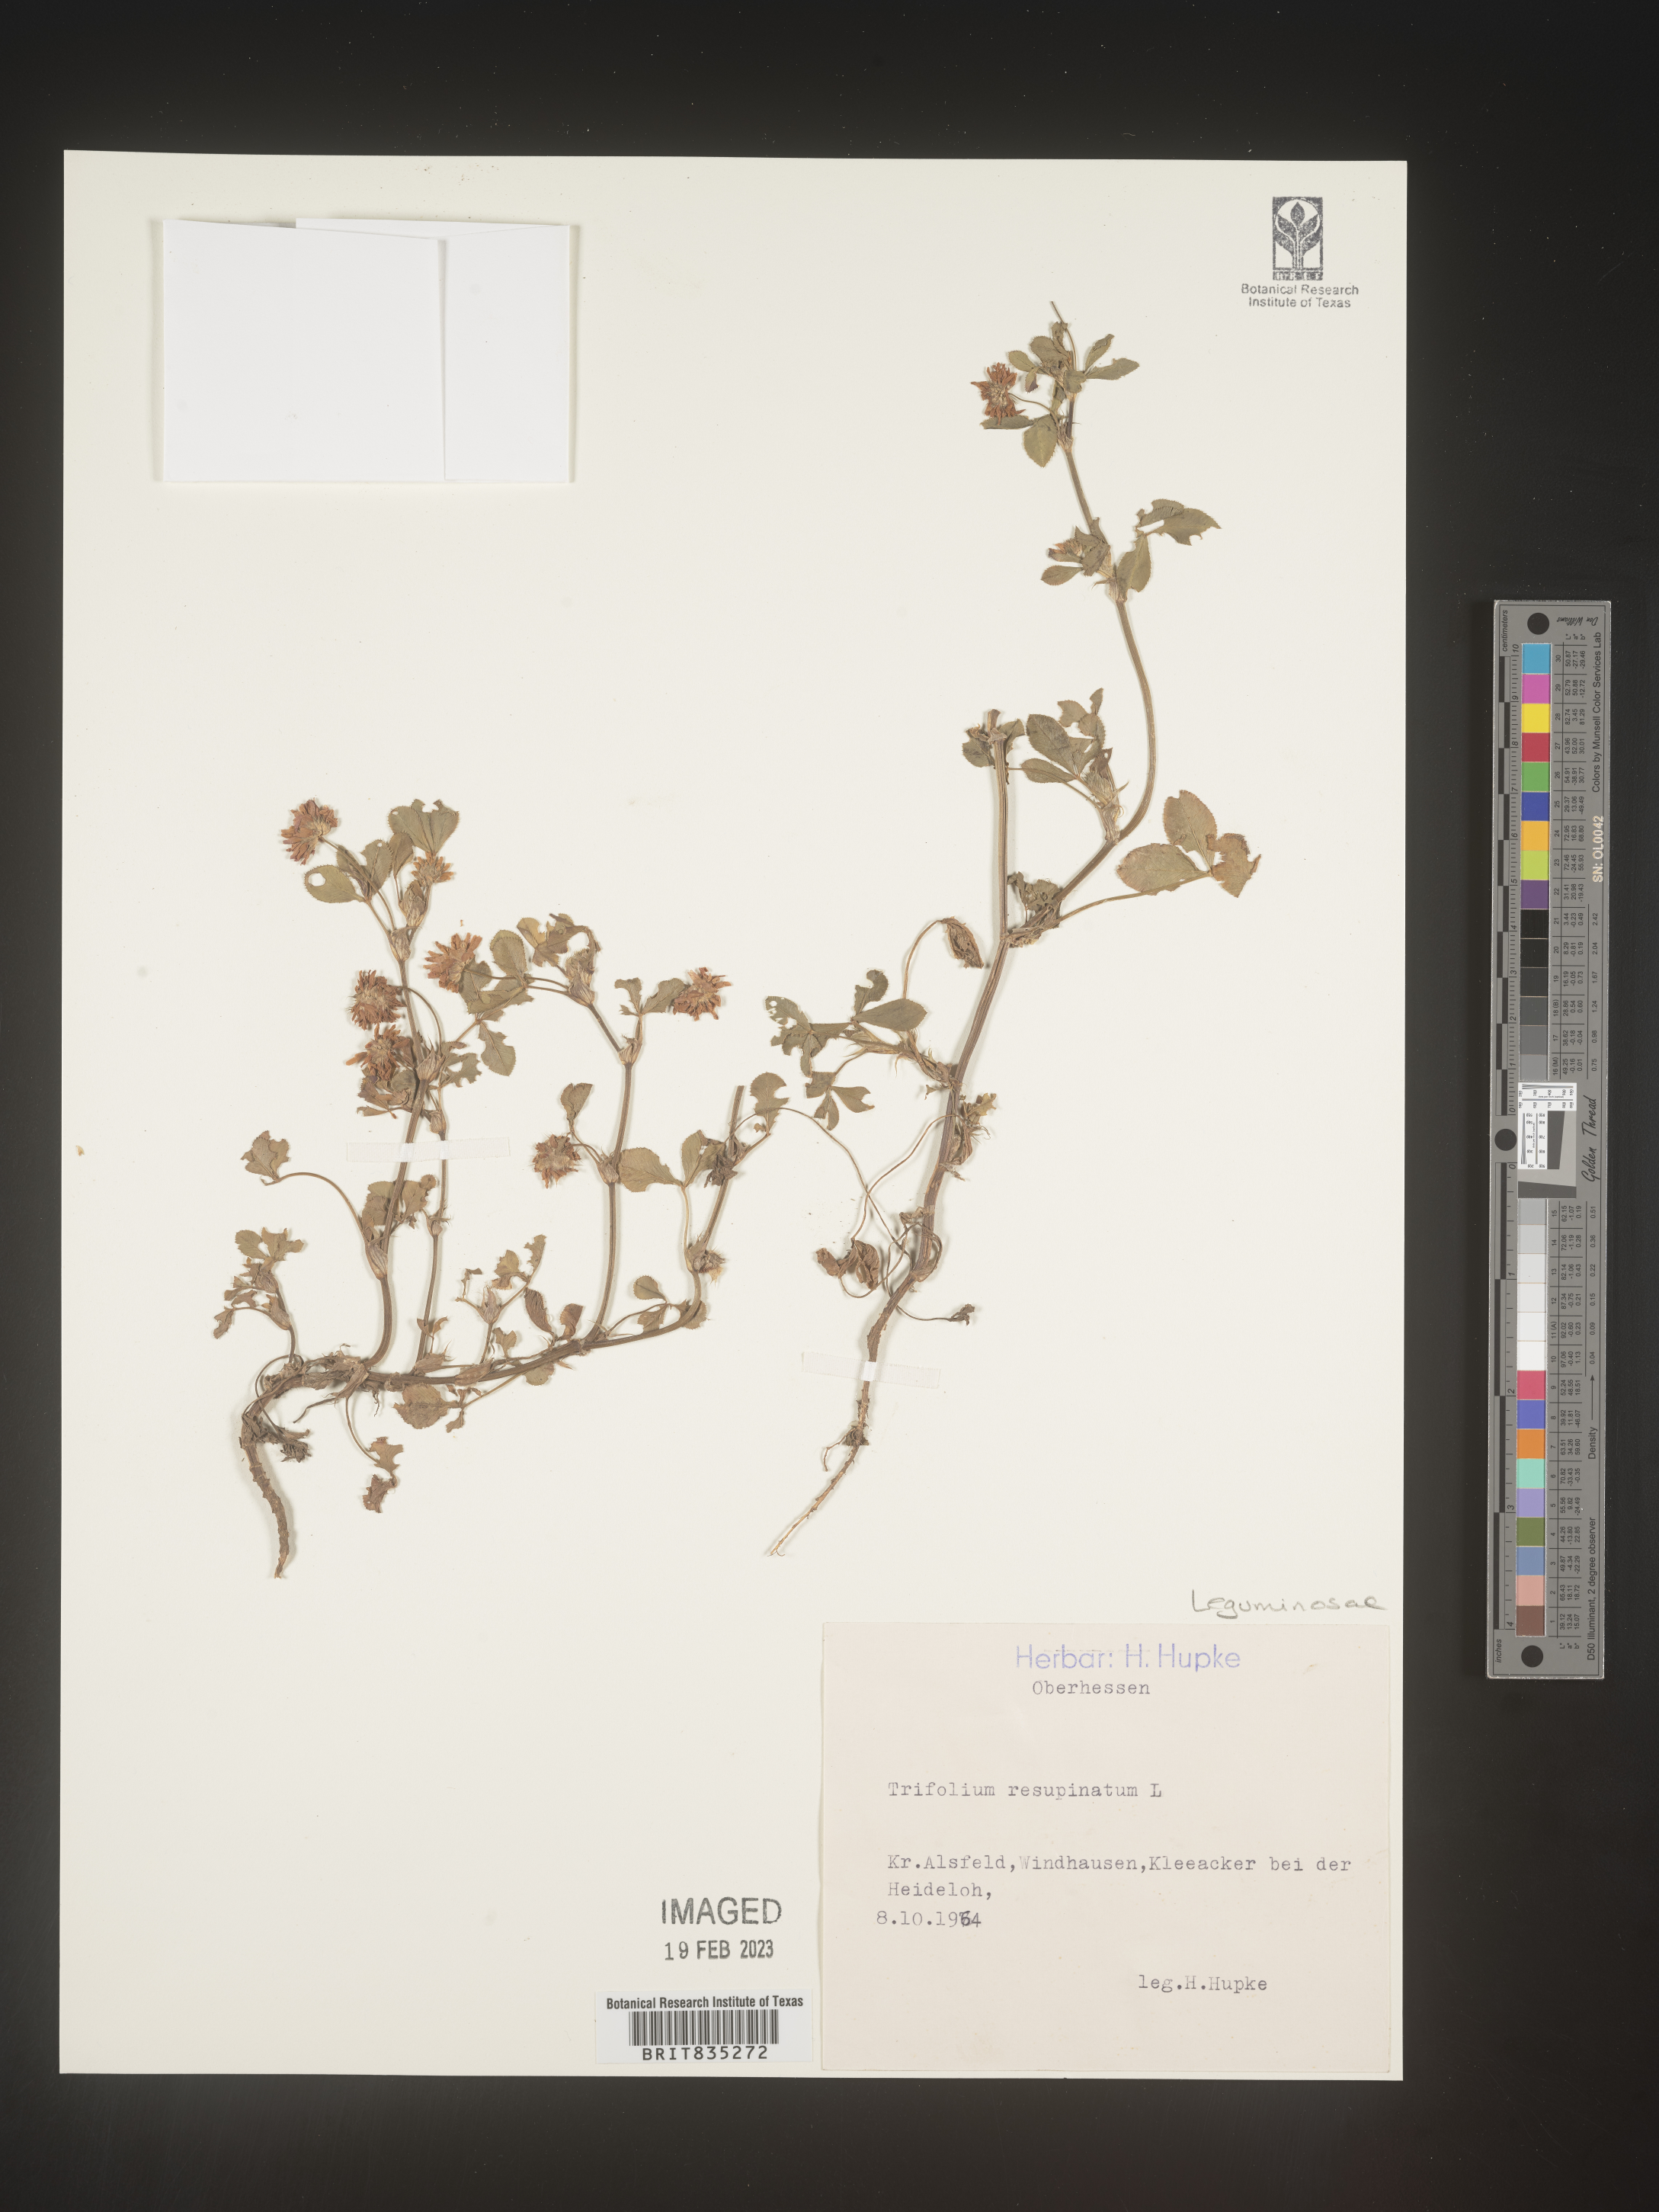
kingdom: Plantae
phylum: Tracheophyta
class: Magnoliopsida
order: Fabales
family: Fabaceae
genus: Trifolium
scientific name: Trifolium
